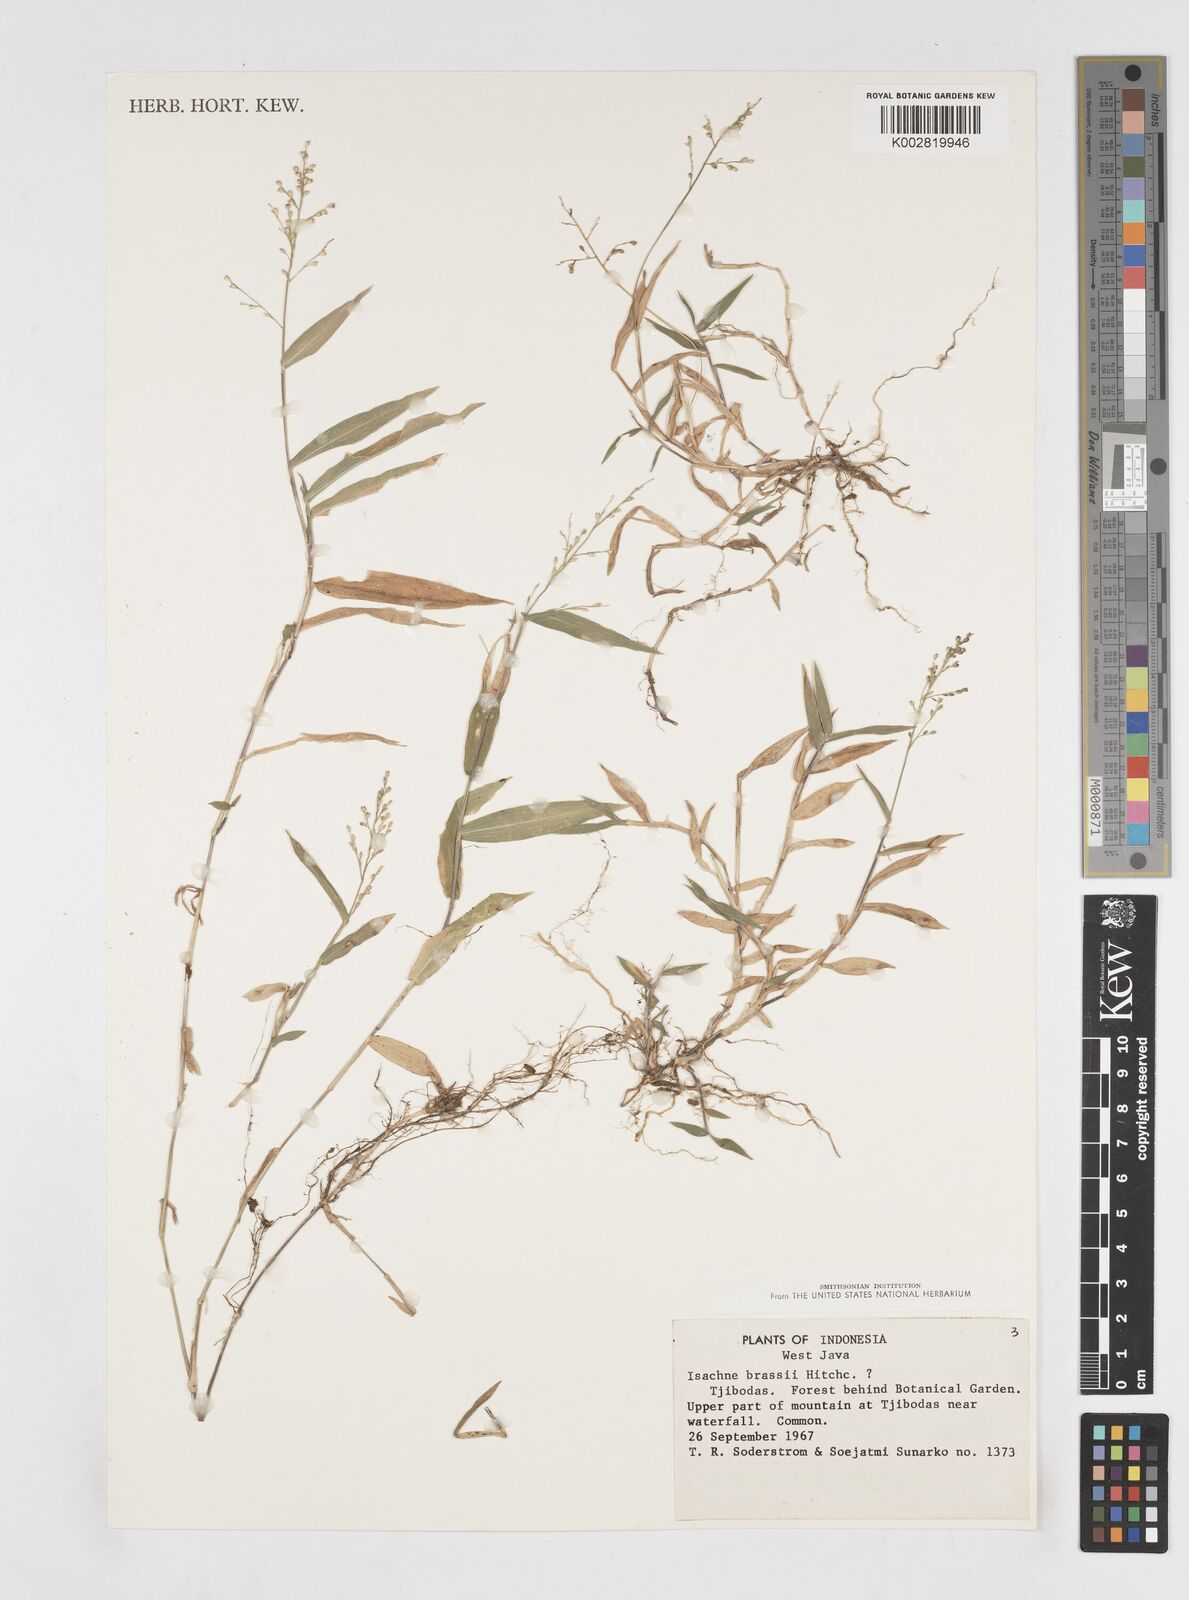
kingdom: Plantae
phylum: Tracheophyta
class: Liliopsida
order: Poales
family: Poaceae
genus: Isachne
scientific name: Isachne brassii
